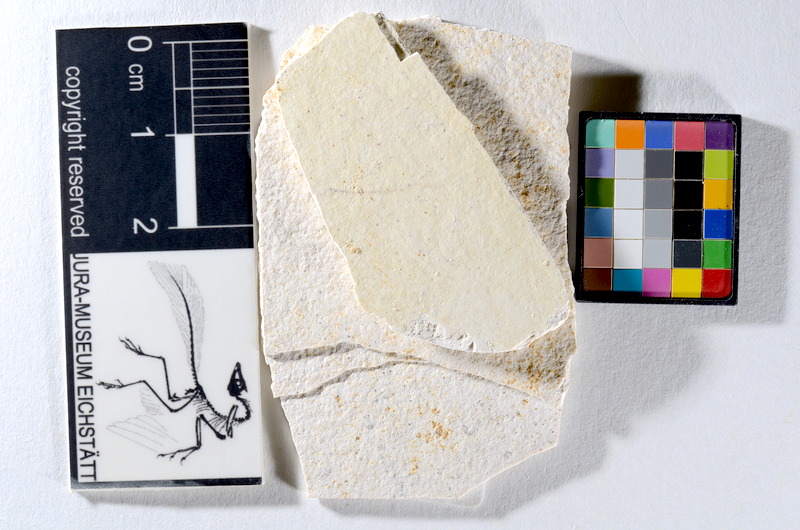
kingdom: Animalia
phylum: Chordata
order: Salmoniformes
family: Orthogonikleithridae
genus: Orthogonikleithrus
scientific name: Orthogonikleithrus hoelli
